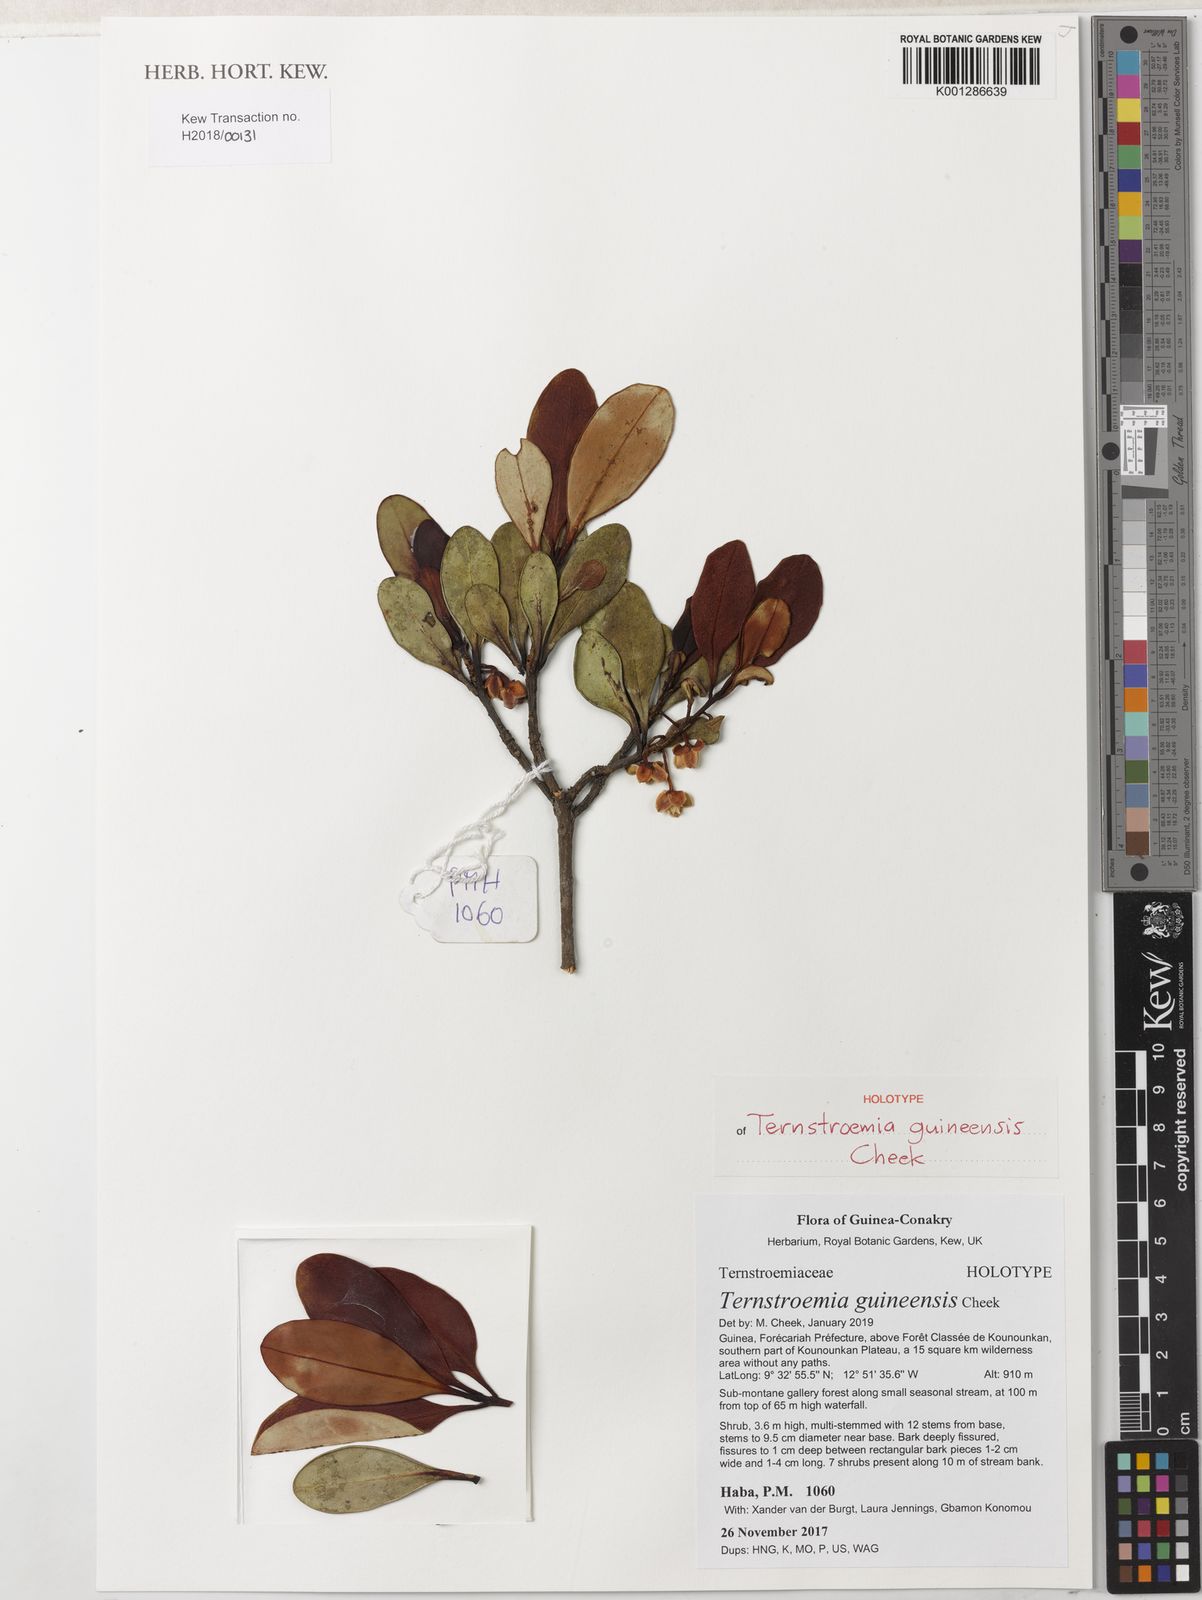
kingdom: Plantae
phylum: Tracheophyta
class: Magnoliopsida
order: Ericales
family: Pentaphylacaceae
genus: Ternstroemia
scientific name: Ternstroemia
